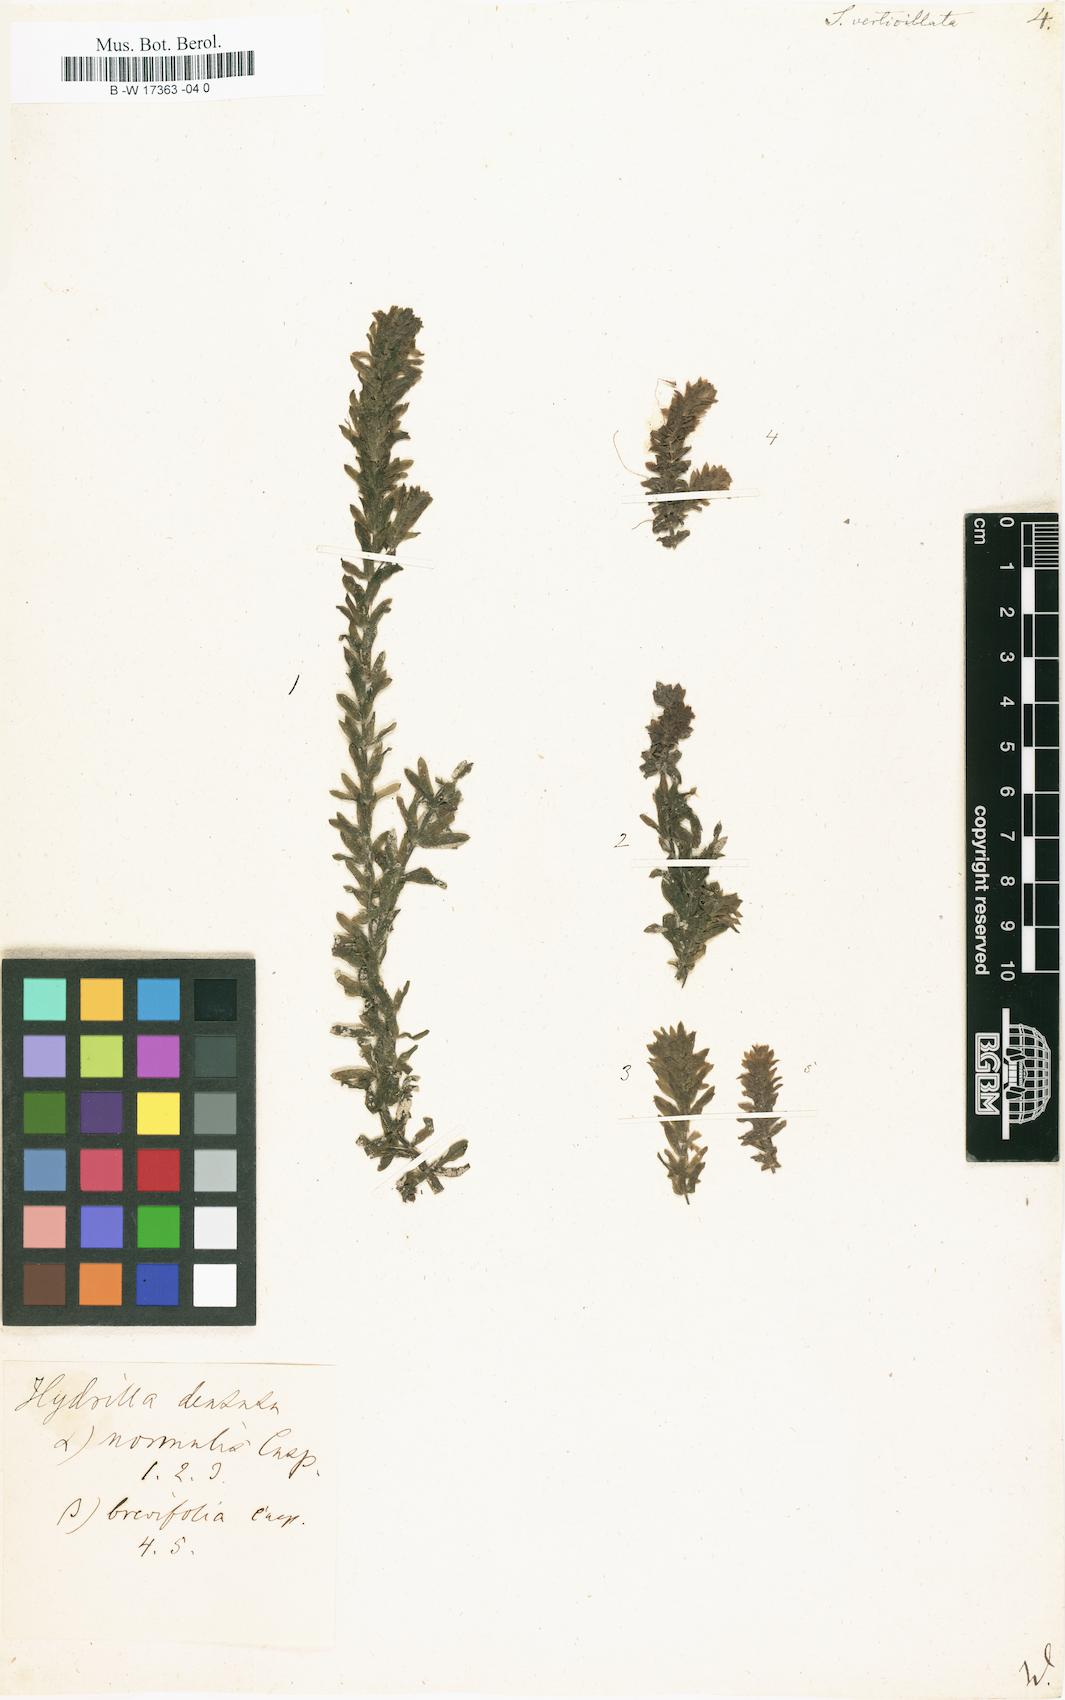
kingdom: Plantae
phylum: Tracheophyta
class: Liliopsida
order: Alismatales
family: Hydrocharitaceae
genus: Hydrilla
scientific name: Hydrilla verticillata
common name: Florida-elodea
